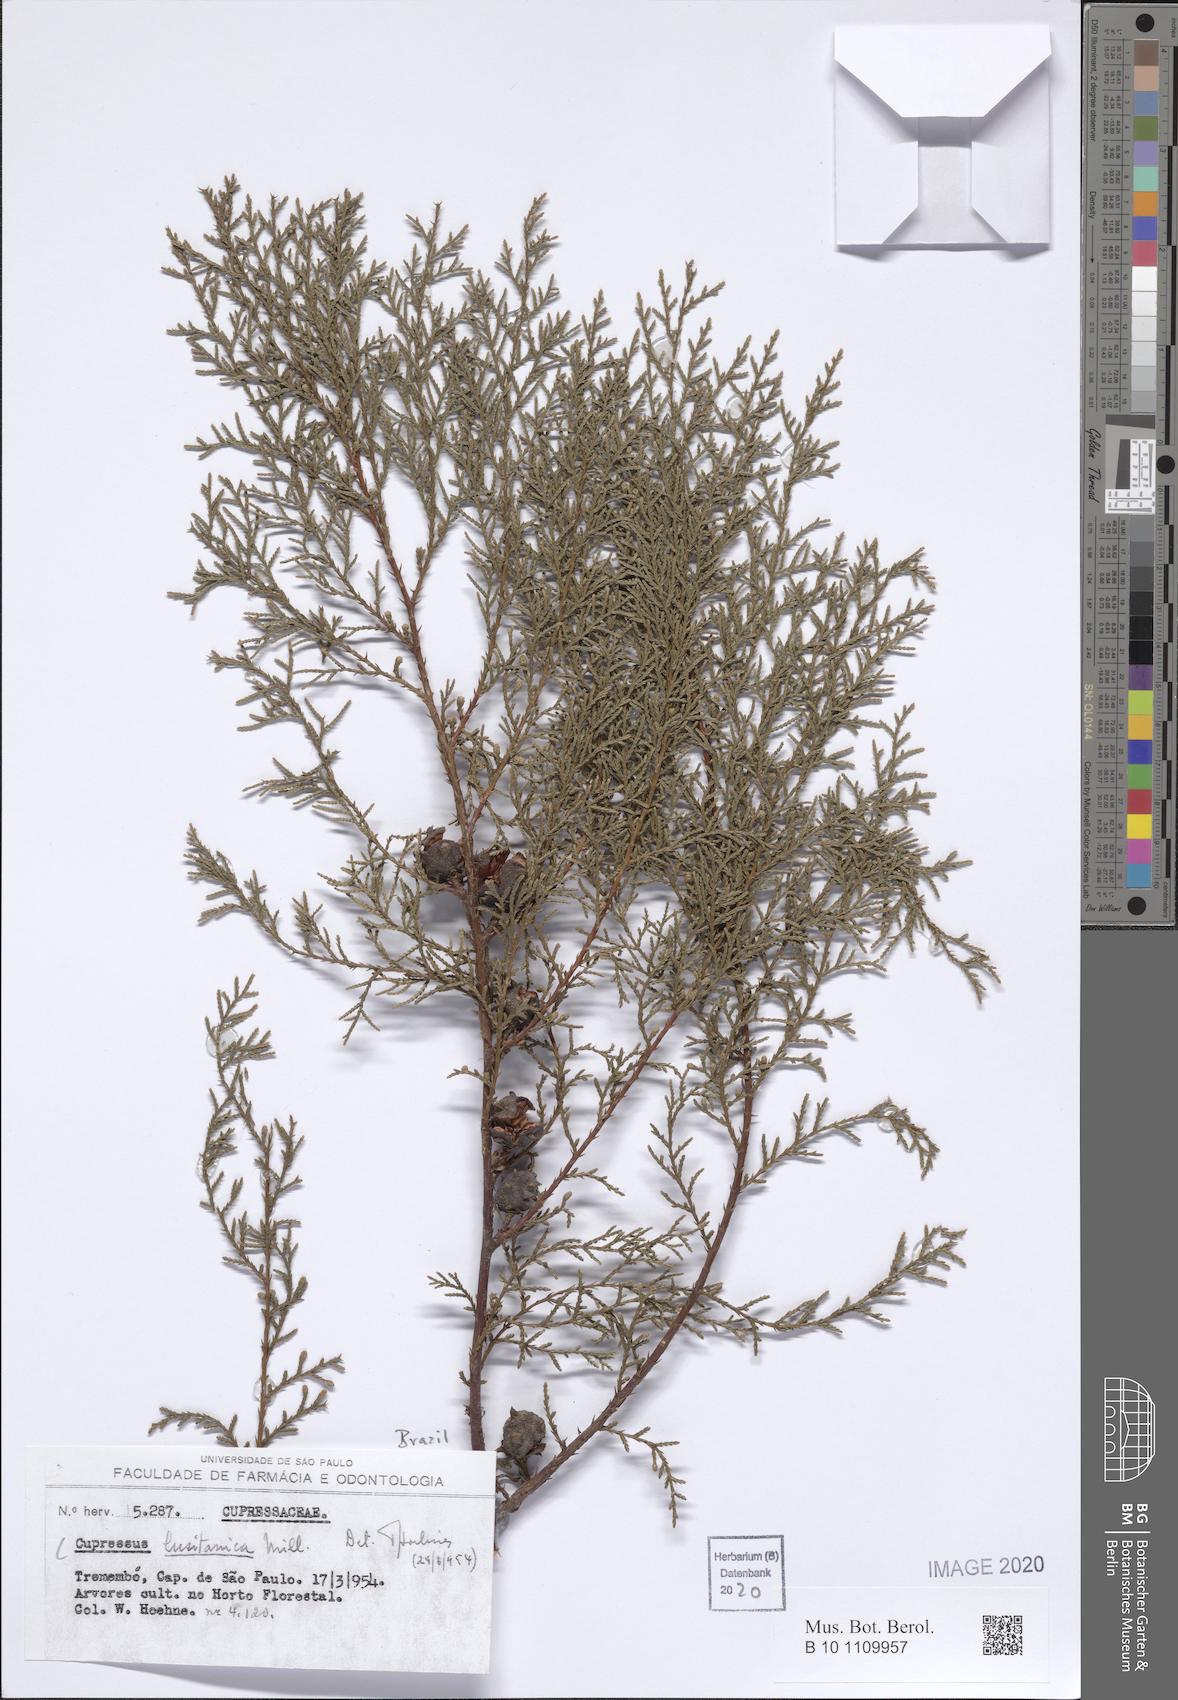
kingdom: Plantae
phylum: Tracheophyta
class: Pinopsida
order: Pinales
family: Cupressaceae
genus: Cupressus
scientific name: Cupressus lusitanica
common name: Mexican cypress
